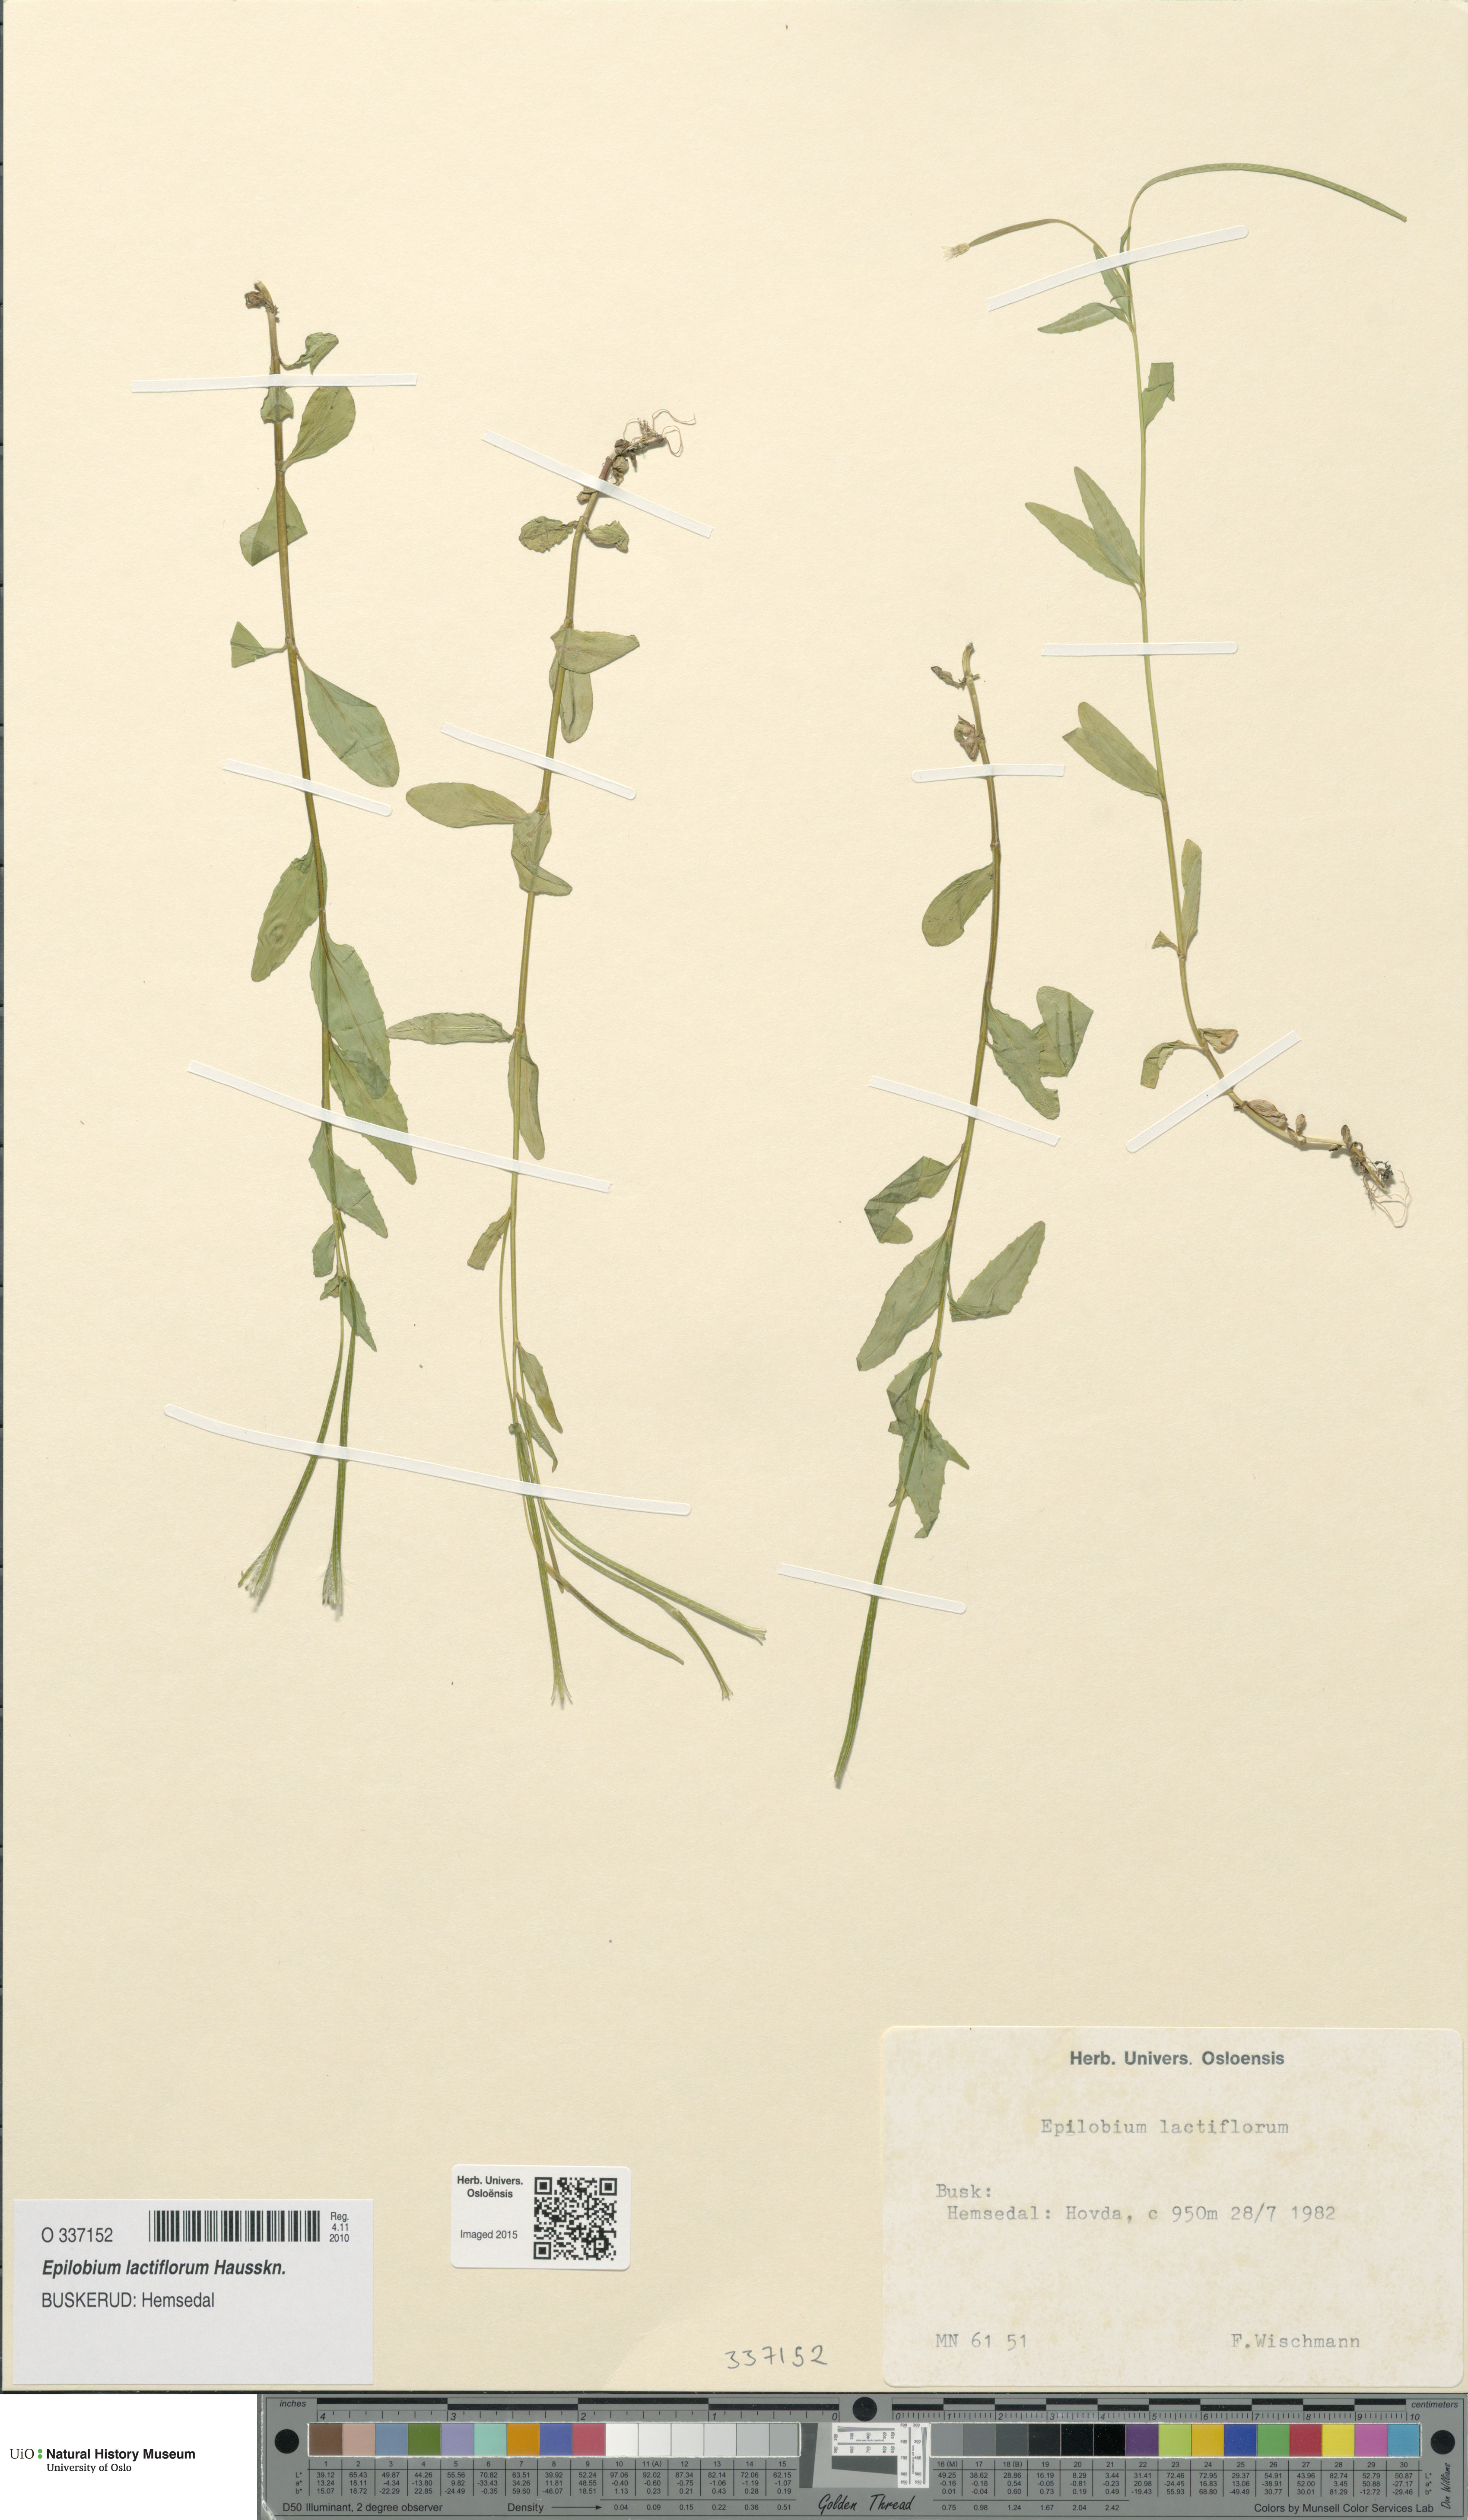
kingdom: Plantae
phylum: Tracheophyta
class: Magnoliopsida
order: Myrtales
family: Onagraceae
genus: Epilobium
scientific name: Epilobium lactiflorum
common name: Milkflower willowherb
